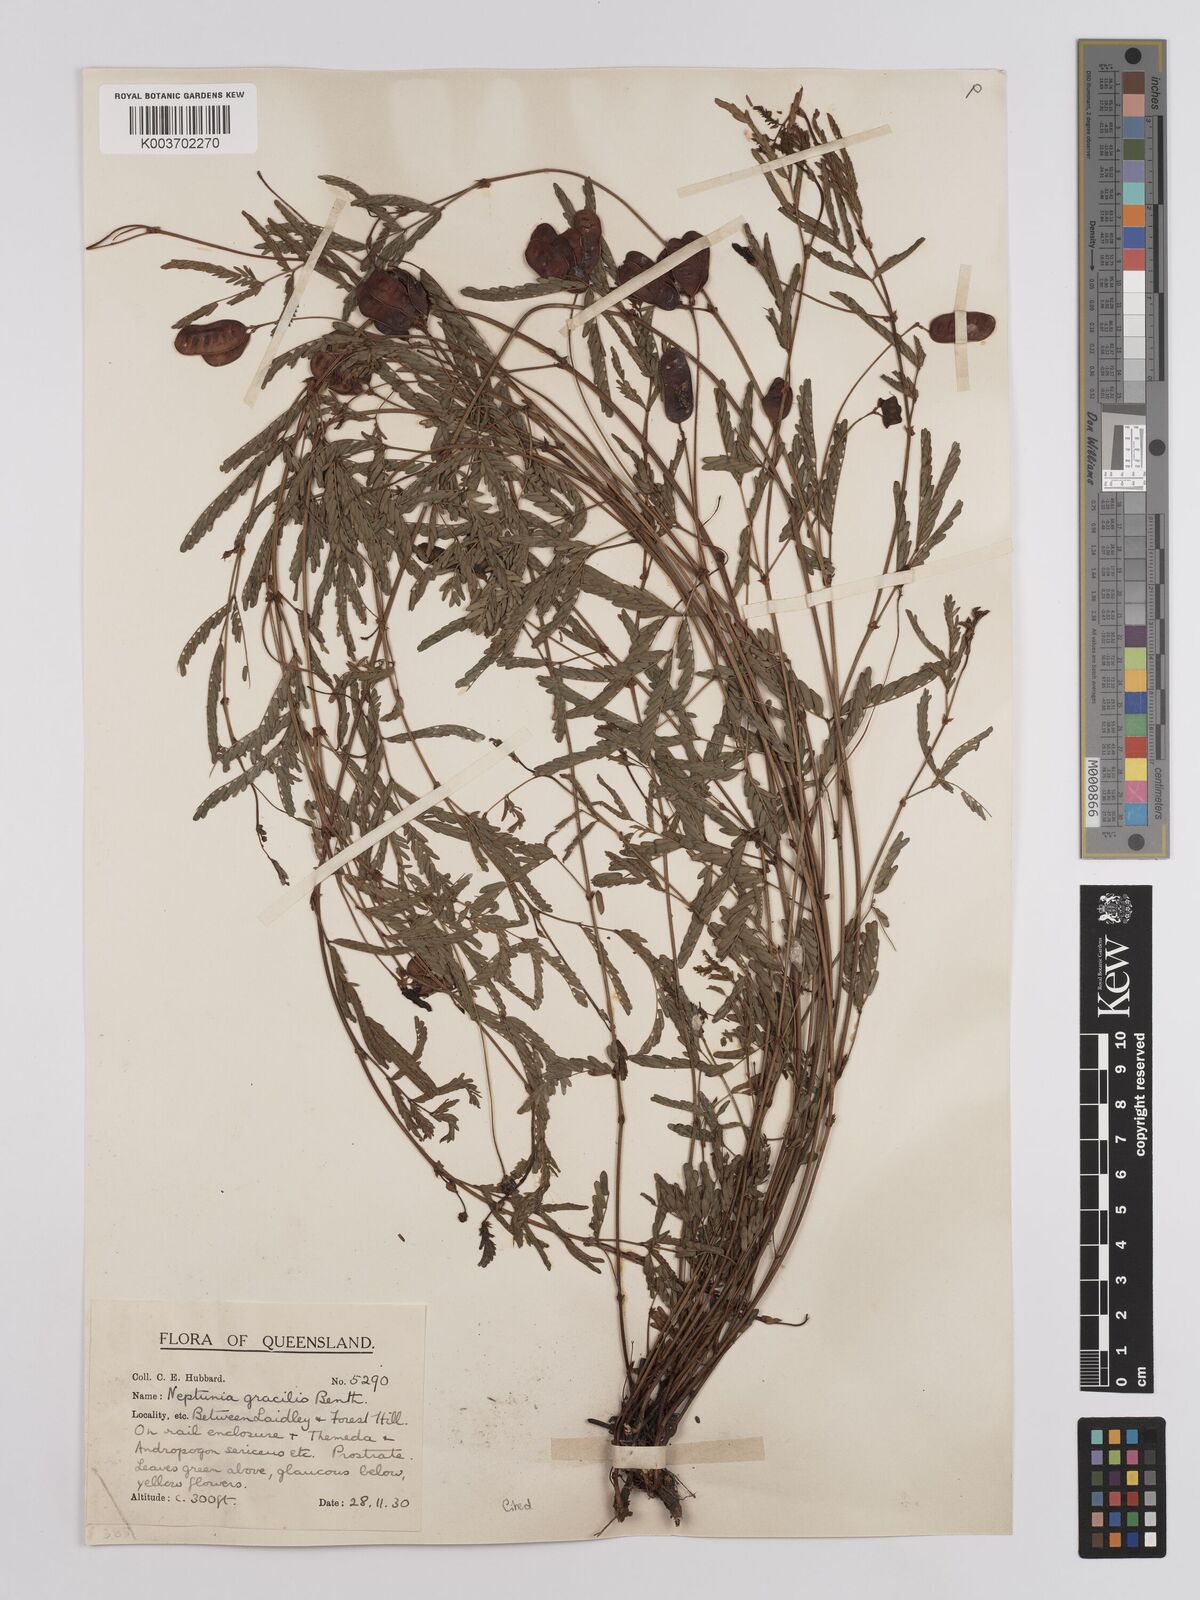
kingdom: Plantae
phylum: Tracheophyta
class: Magnoliopsida
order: Fabales
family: Fabaceae
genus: Neptunia
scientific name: Neptunia gracilis
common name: Sensitive-plant
